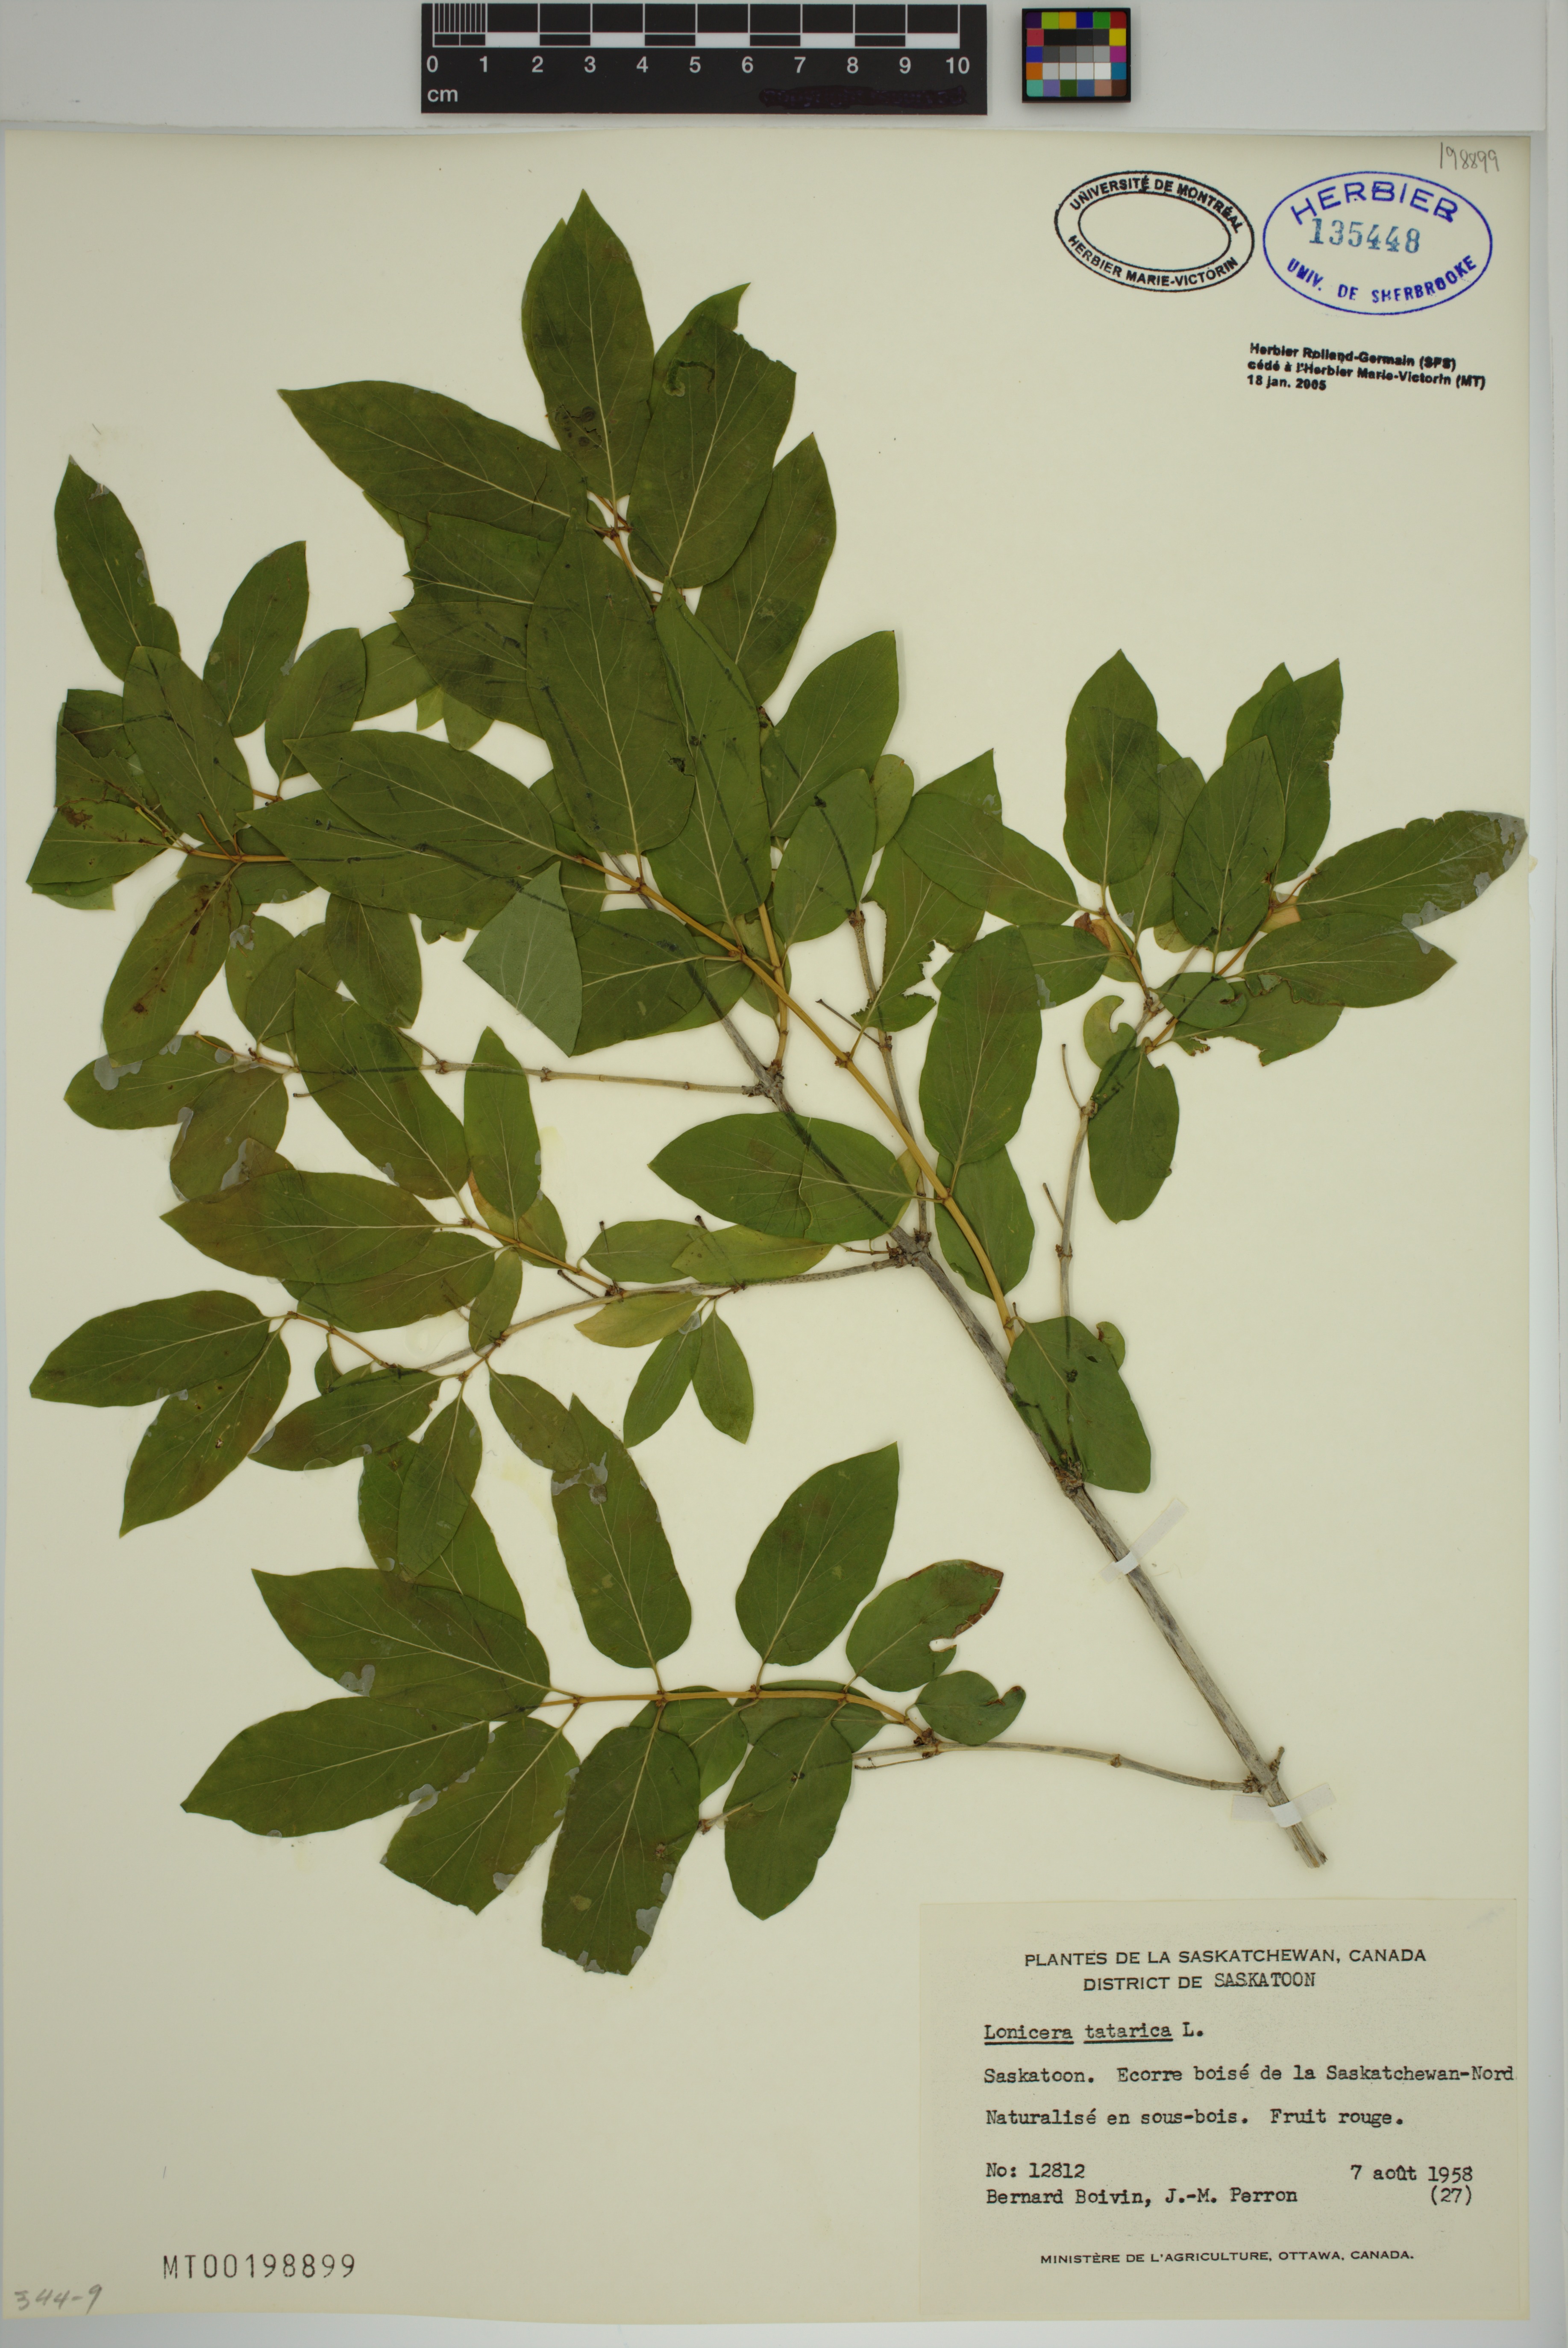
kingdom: Plantae
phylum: Tracheophyta
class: Magnoliopsida
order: Dipsacales
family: Caprifoliaceae
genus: Lonicera
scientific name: Lonicera tatarica
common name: Tatarian honeysuckle
